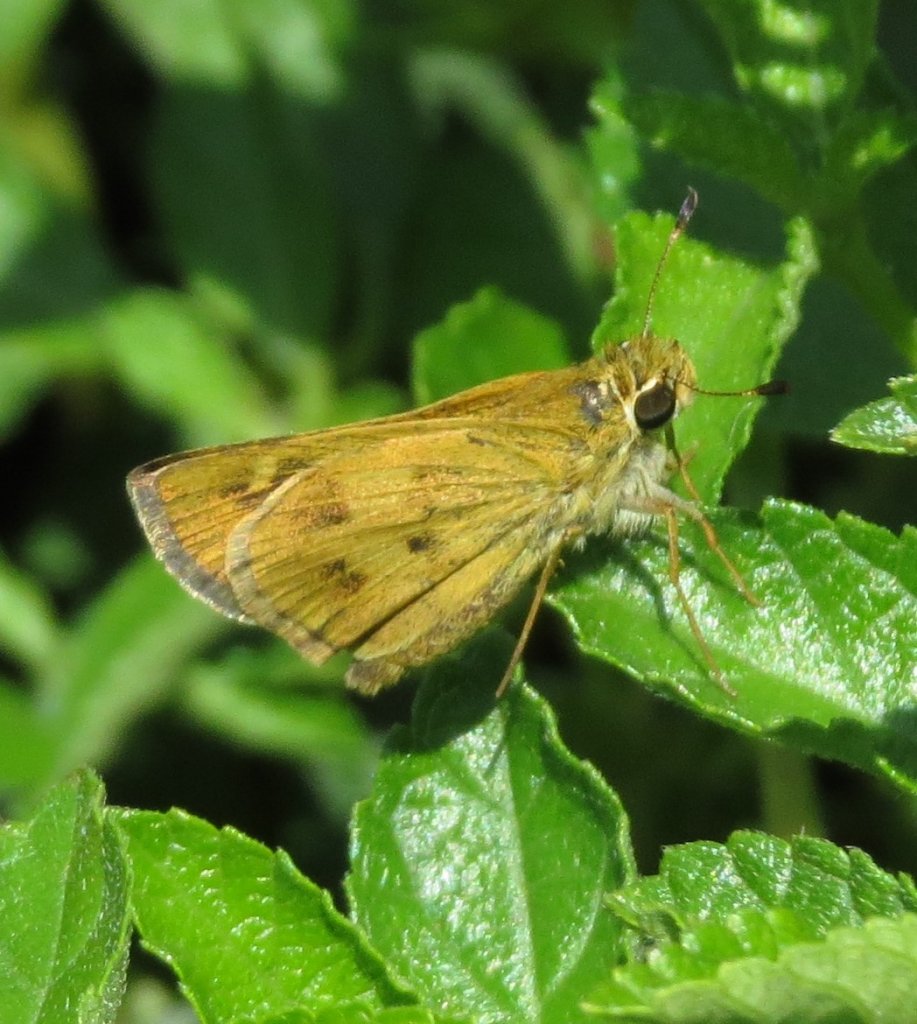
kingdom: Animalia
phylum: Arthropoda
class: Insecta
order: Lepidoptera
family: Hesperiidae
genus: Polites
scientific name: Polites vibex
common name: Whirlabout
